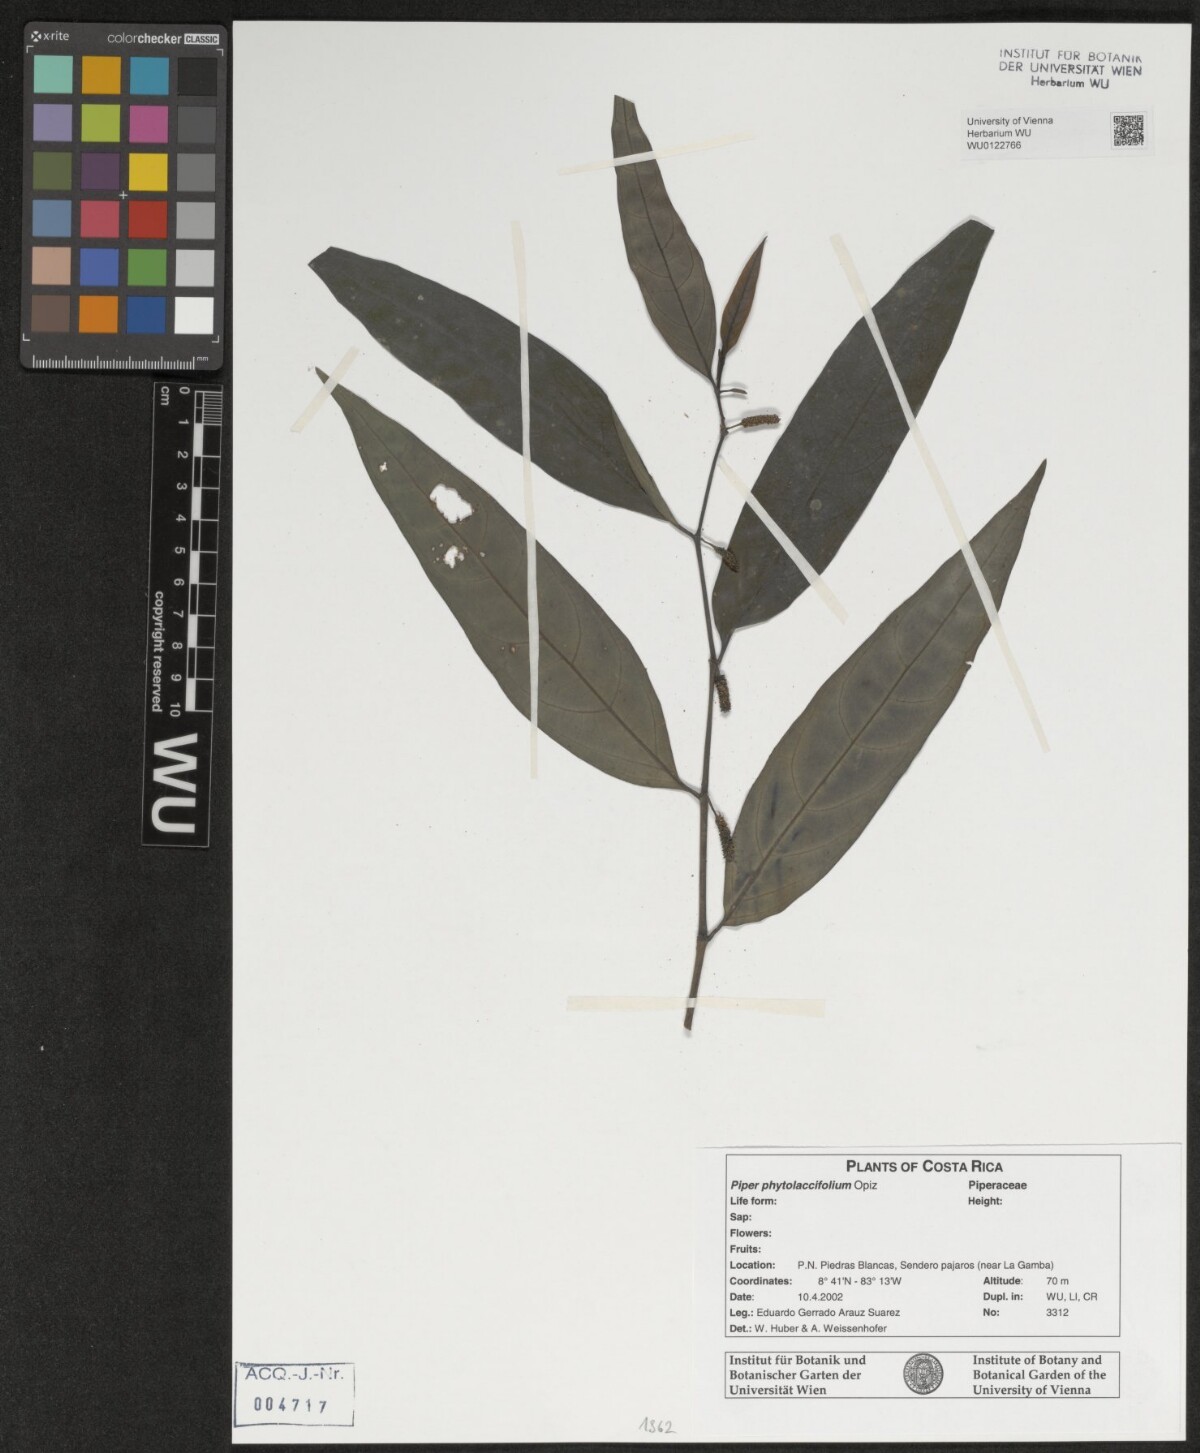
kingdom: Plantae
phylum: Tracheophyta
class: Magnoliopsida
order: Piperales
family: Piperaceae
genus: Piper
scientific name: Piper phytolaccifolium
